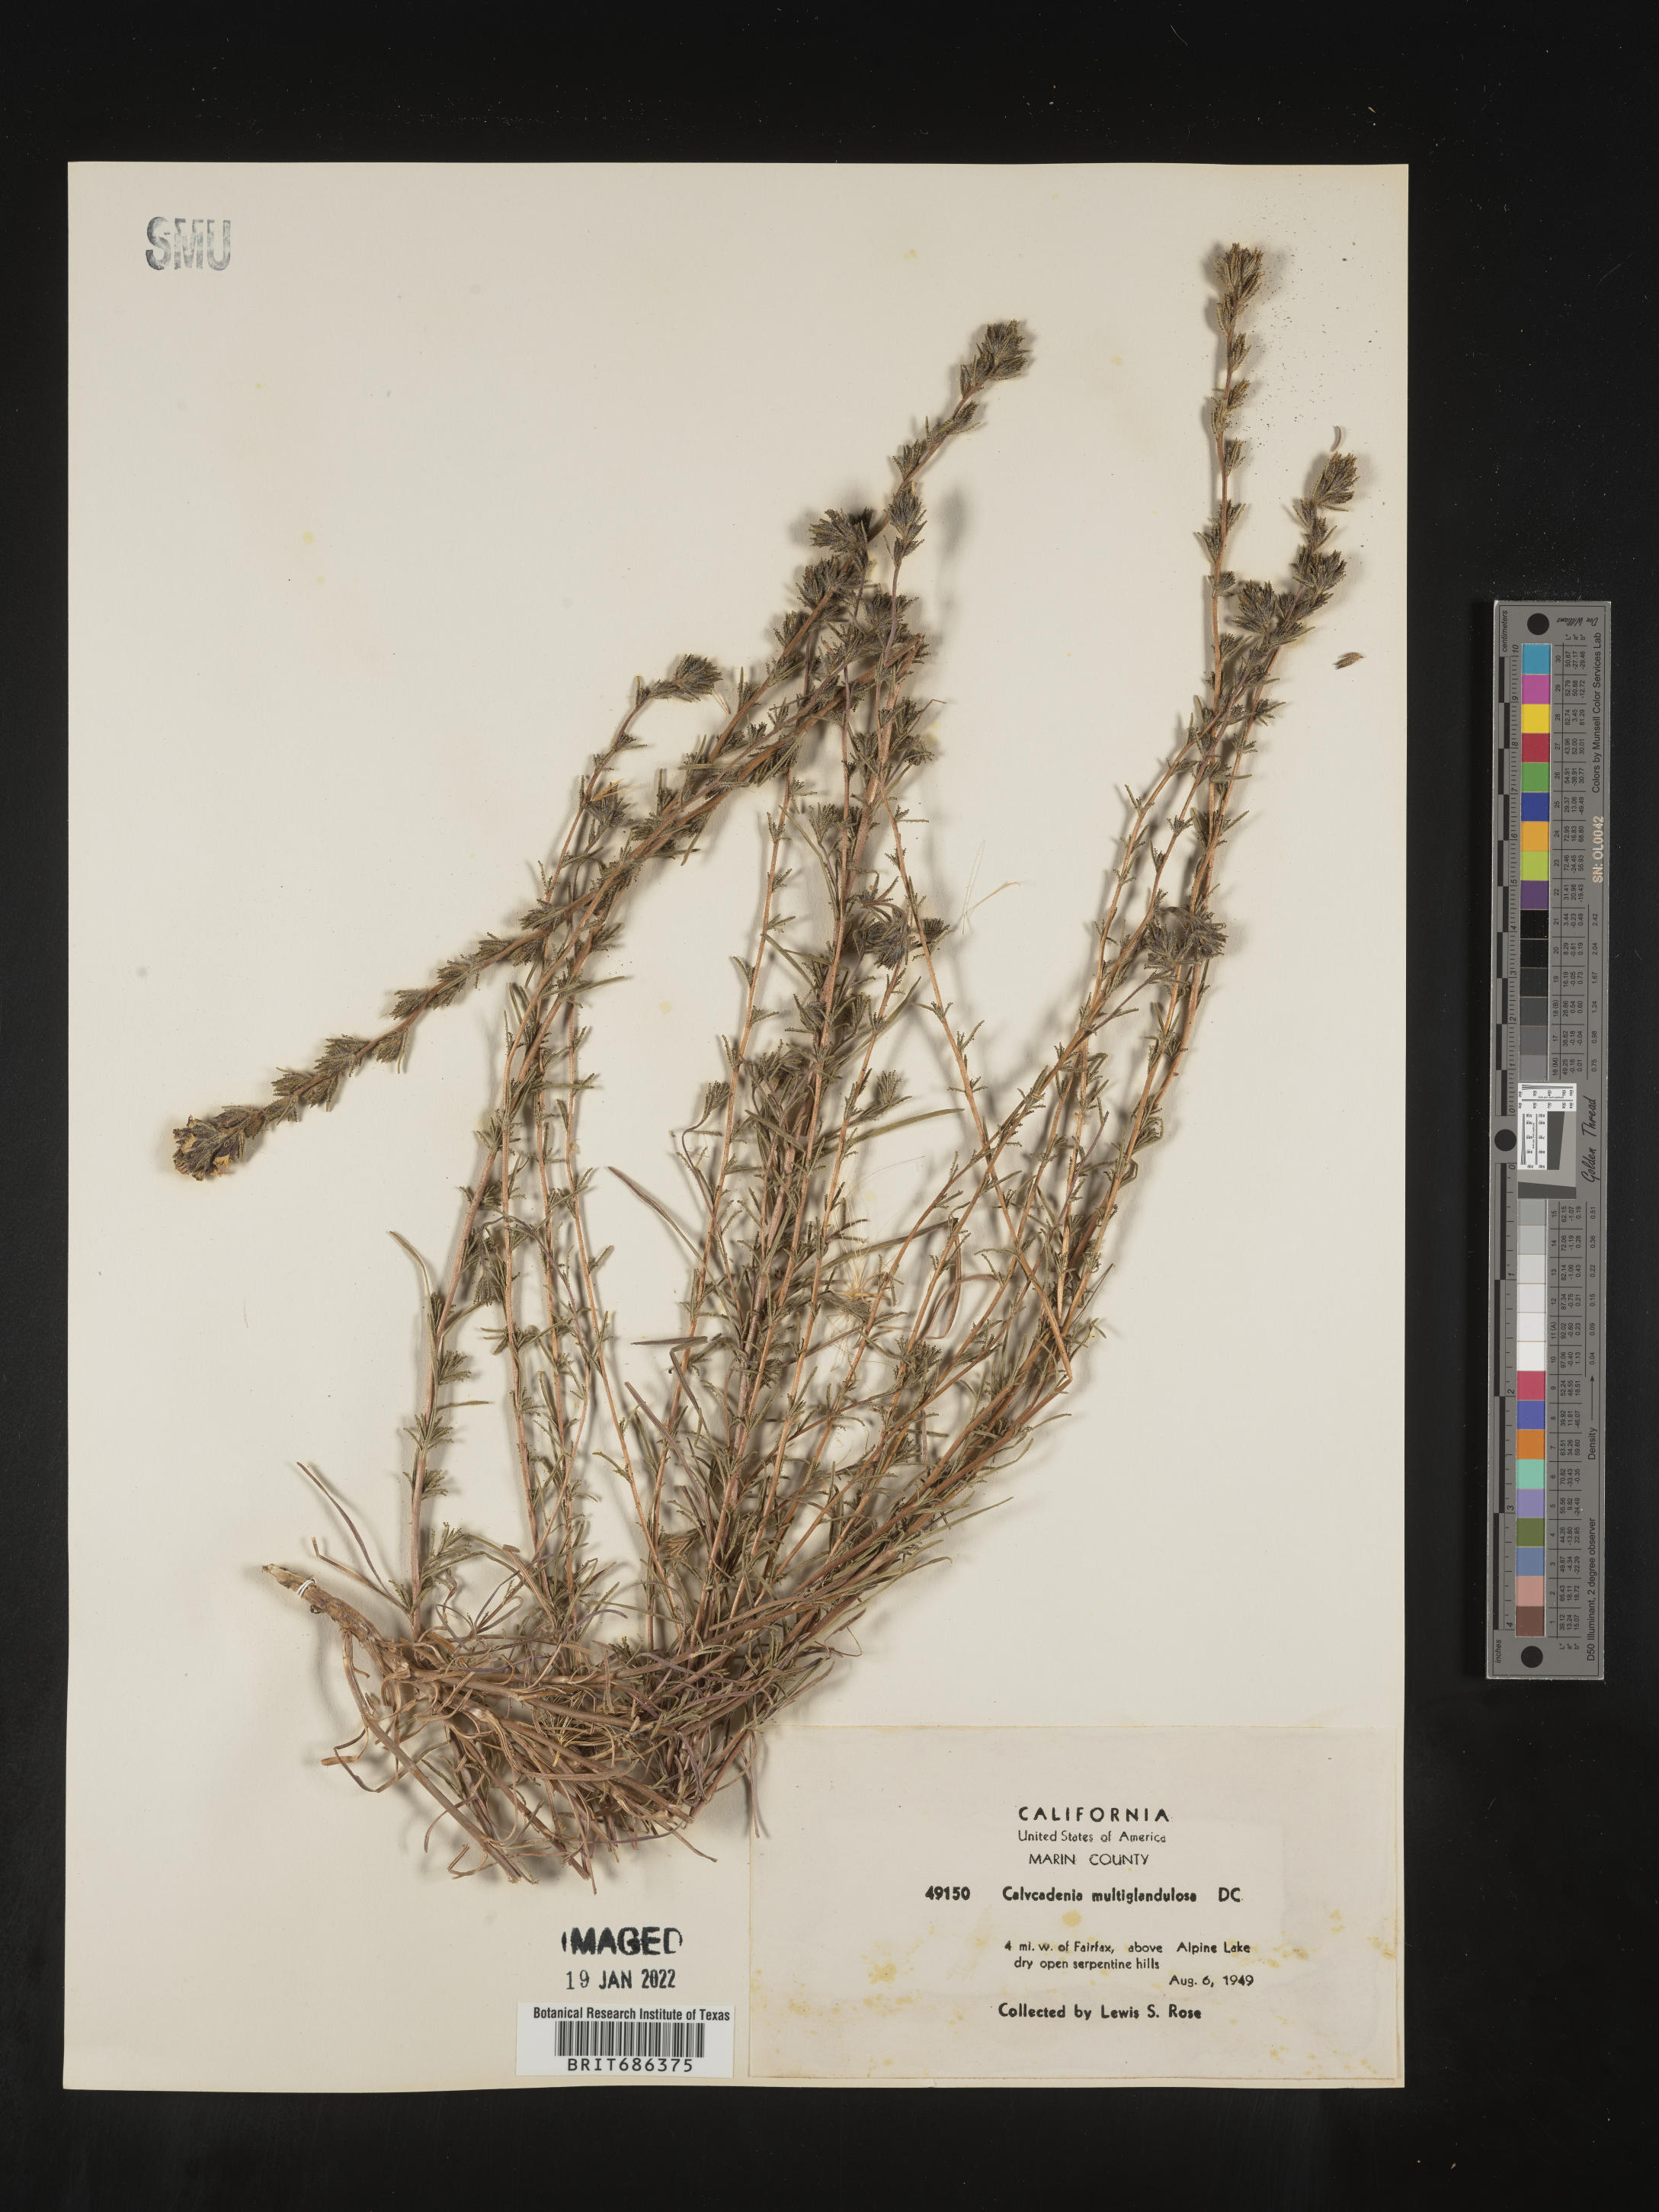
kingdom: Plantae
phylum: Tracheophyta
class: Magnoliopsida
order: Asterales
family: Asteraceae
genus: Calycadenia
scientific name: Calycadenia
